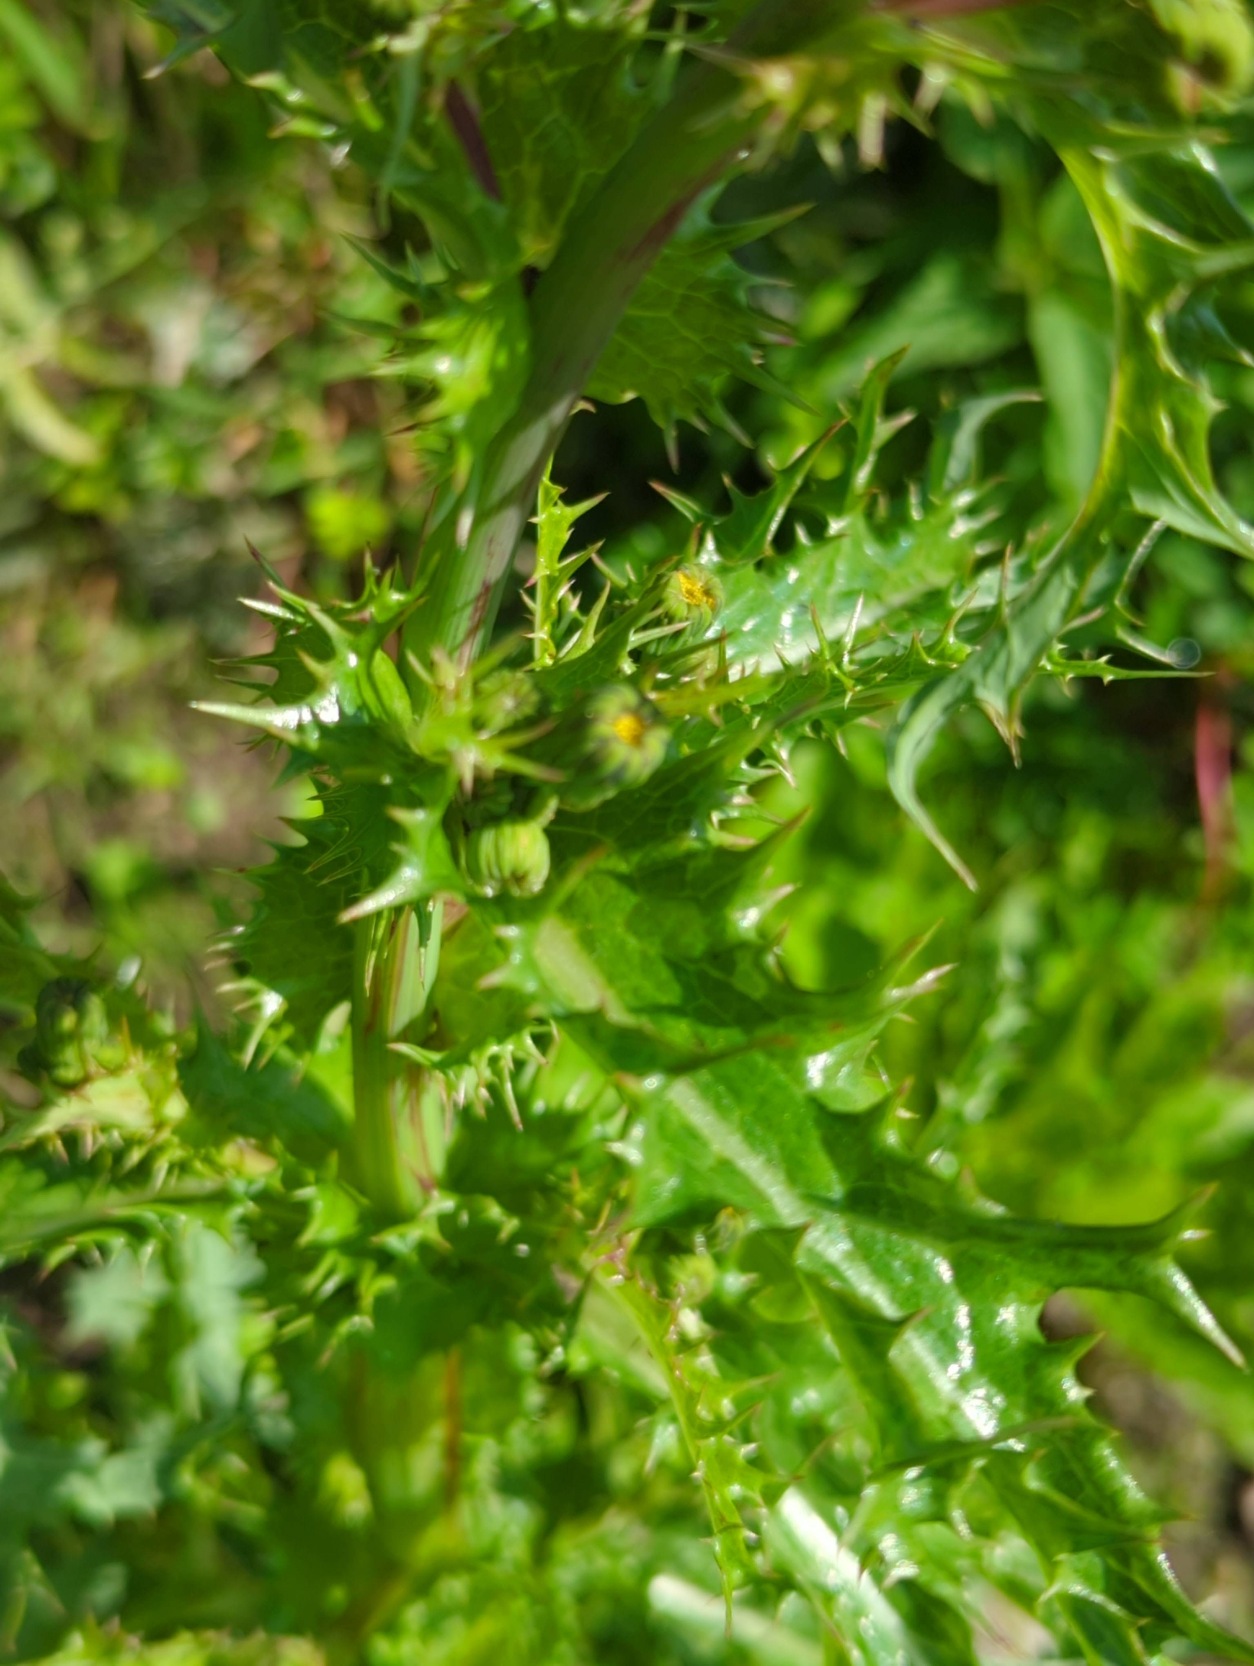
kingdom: Plantae
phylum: Tracheophyta
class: Magnoliopsida
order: Asterales
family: Asteraceae
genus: Sonchus
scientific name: Sonchus asper
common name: Ru svinemælk
